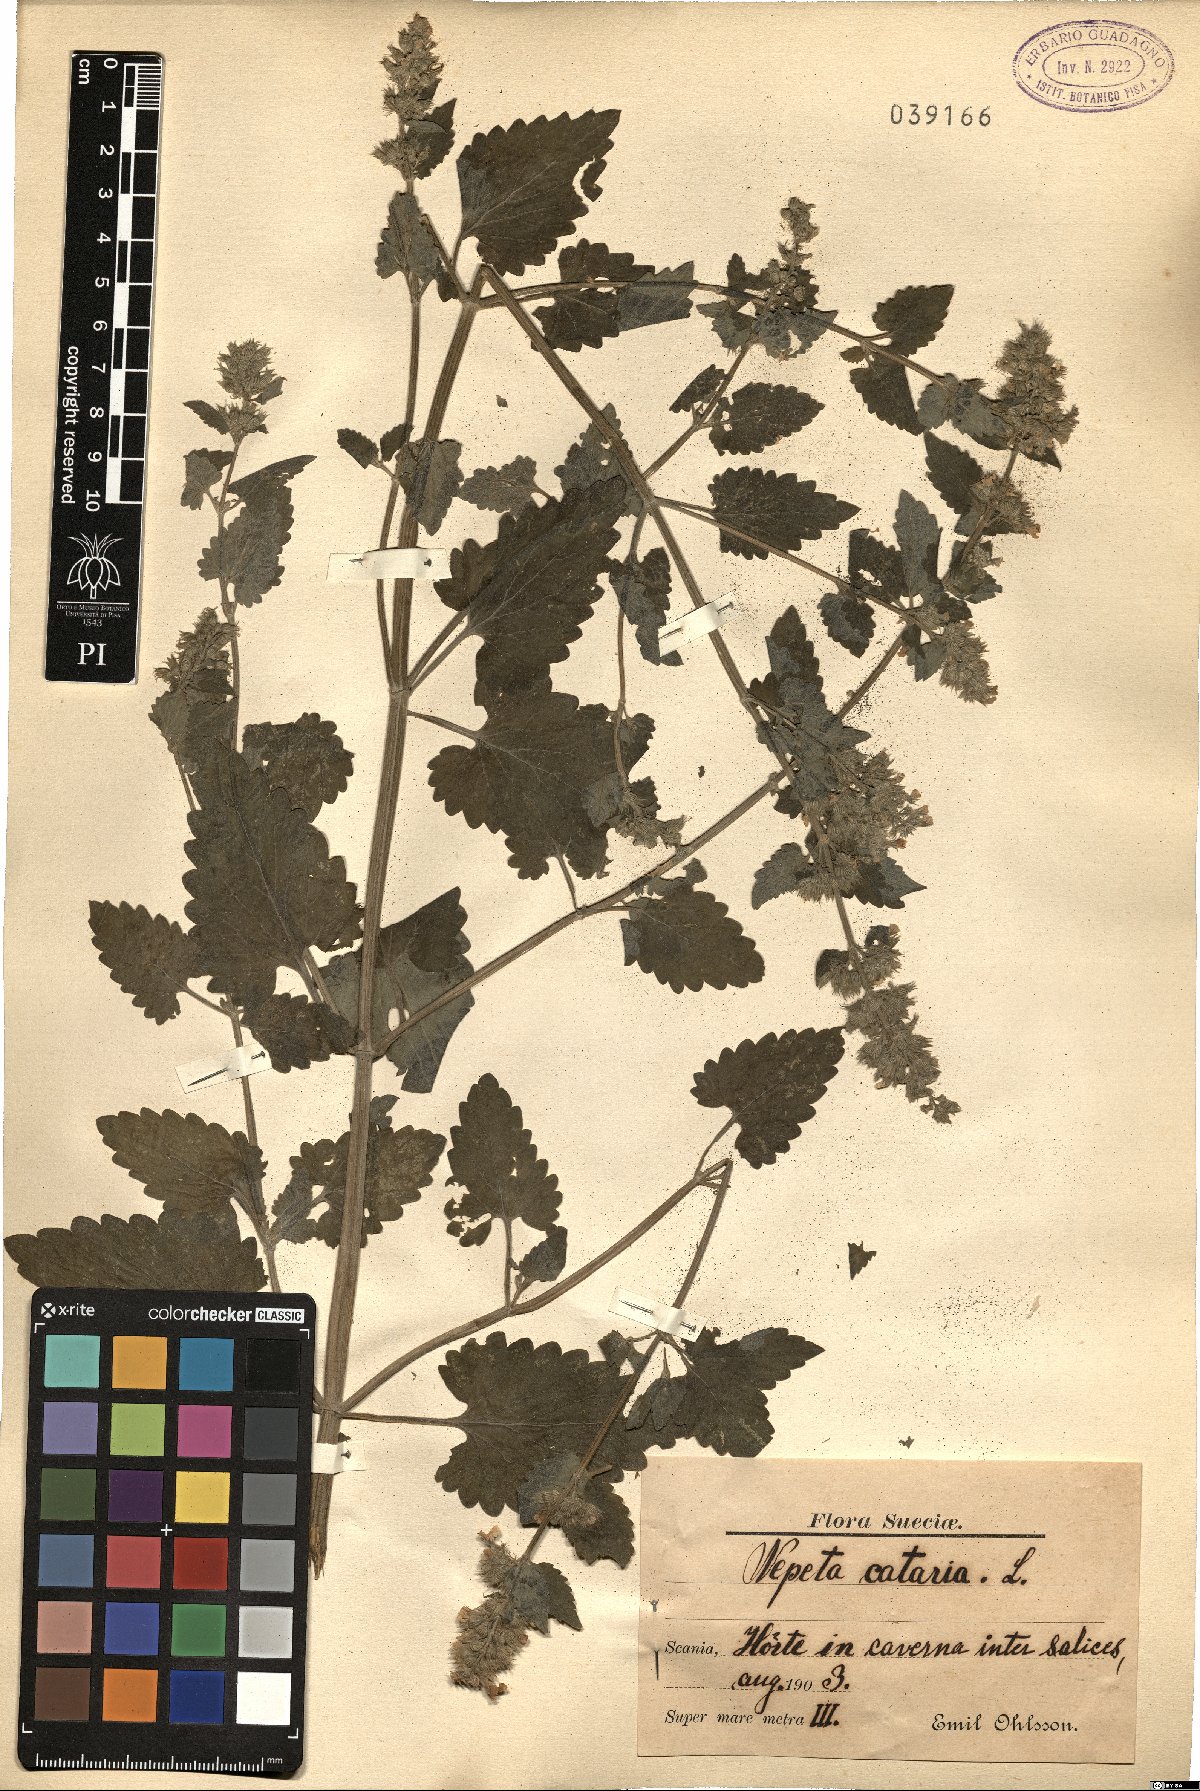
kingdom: Plantae
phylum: Tracheophyta
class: Magnoliopsida
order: Lamiales
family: Lamiaceae
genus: Nepeta
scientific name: Nepeta cataria
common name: Catnip
